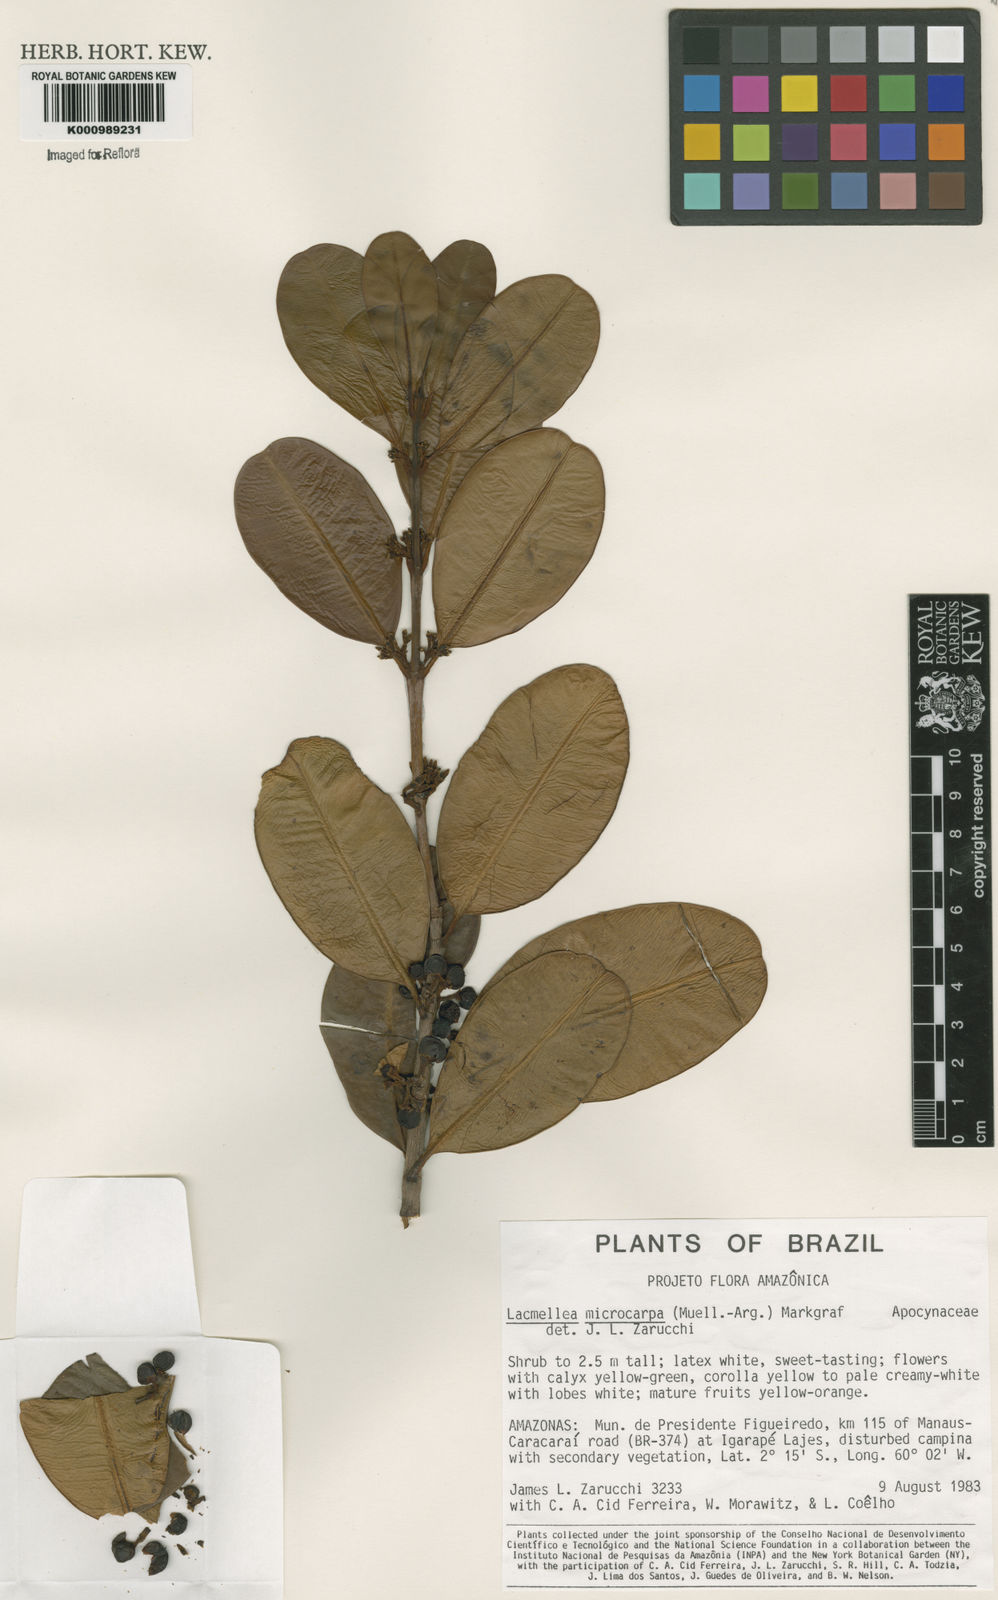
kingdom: Plantae
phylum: Tracheophyta
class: Magnoliopsida
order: Gentianales
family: Apocynaceae
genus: Lacmellea
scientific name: Lacmellea
